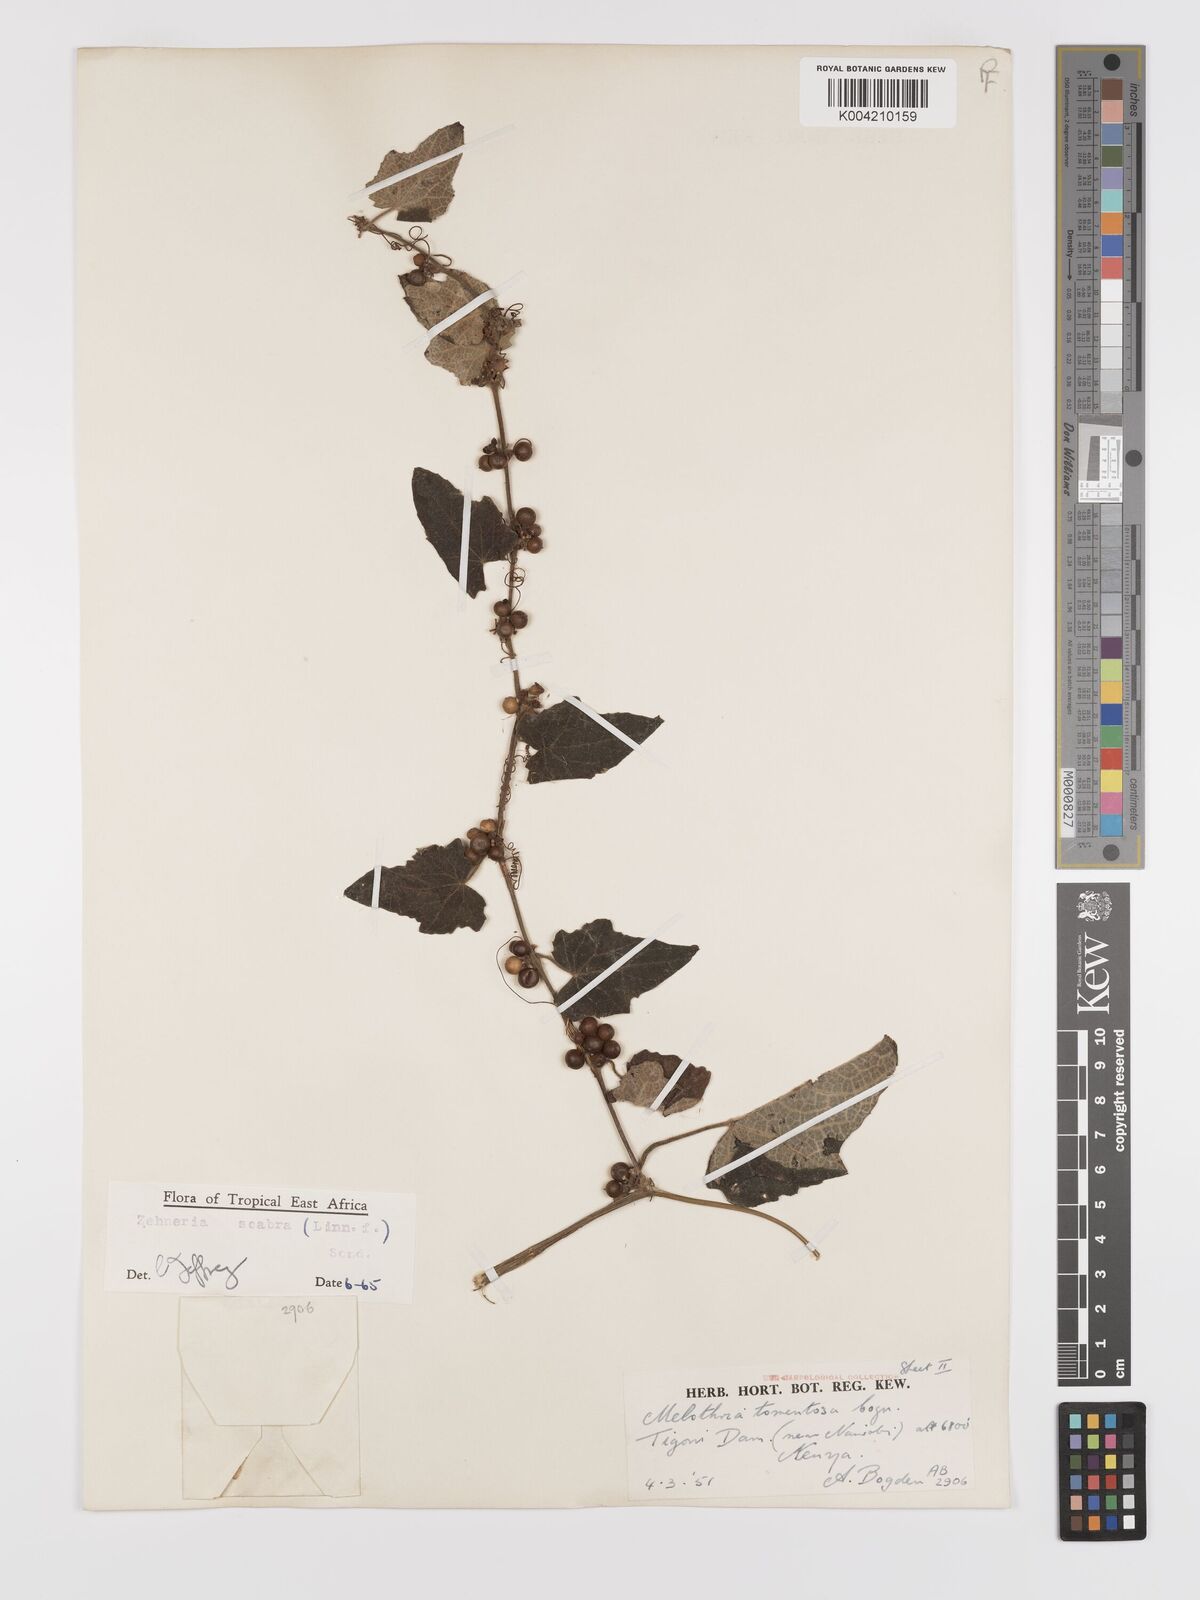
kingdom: Plantae
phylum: Tracheophyta
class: Magnoliopsida
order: Cucurbitales
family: Cucurbitaceae
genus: Zehneria
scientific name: Zehneria scabra
